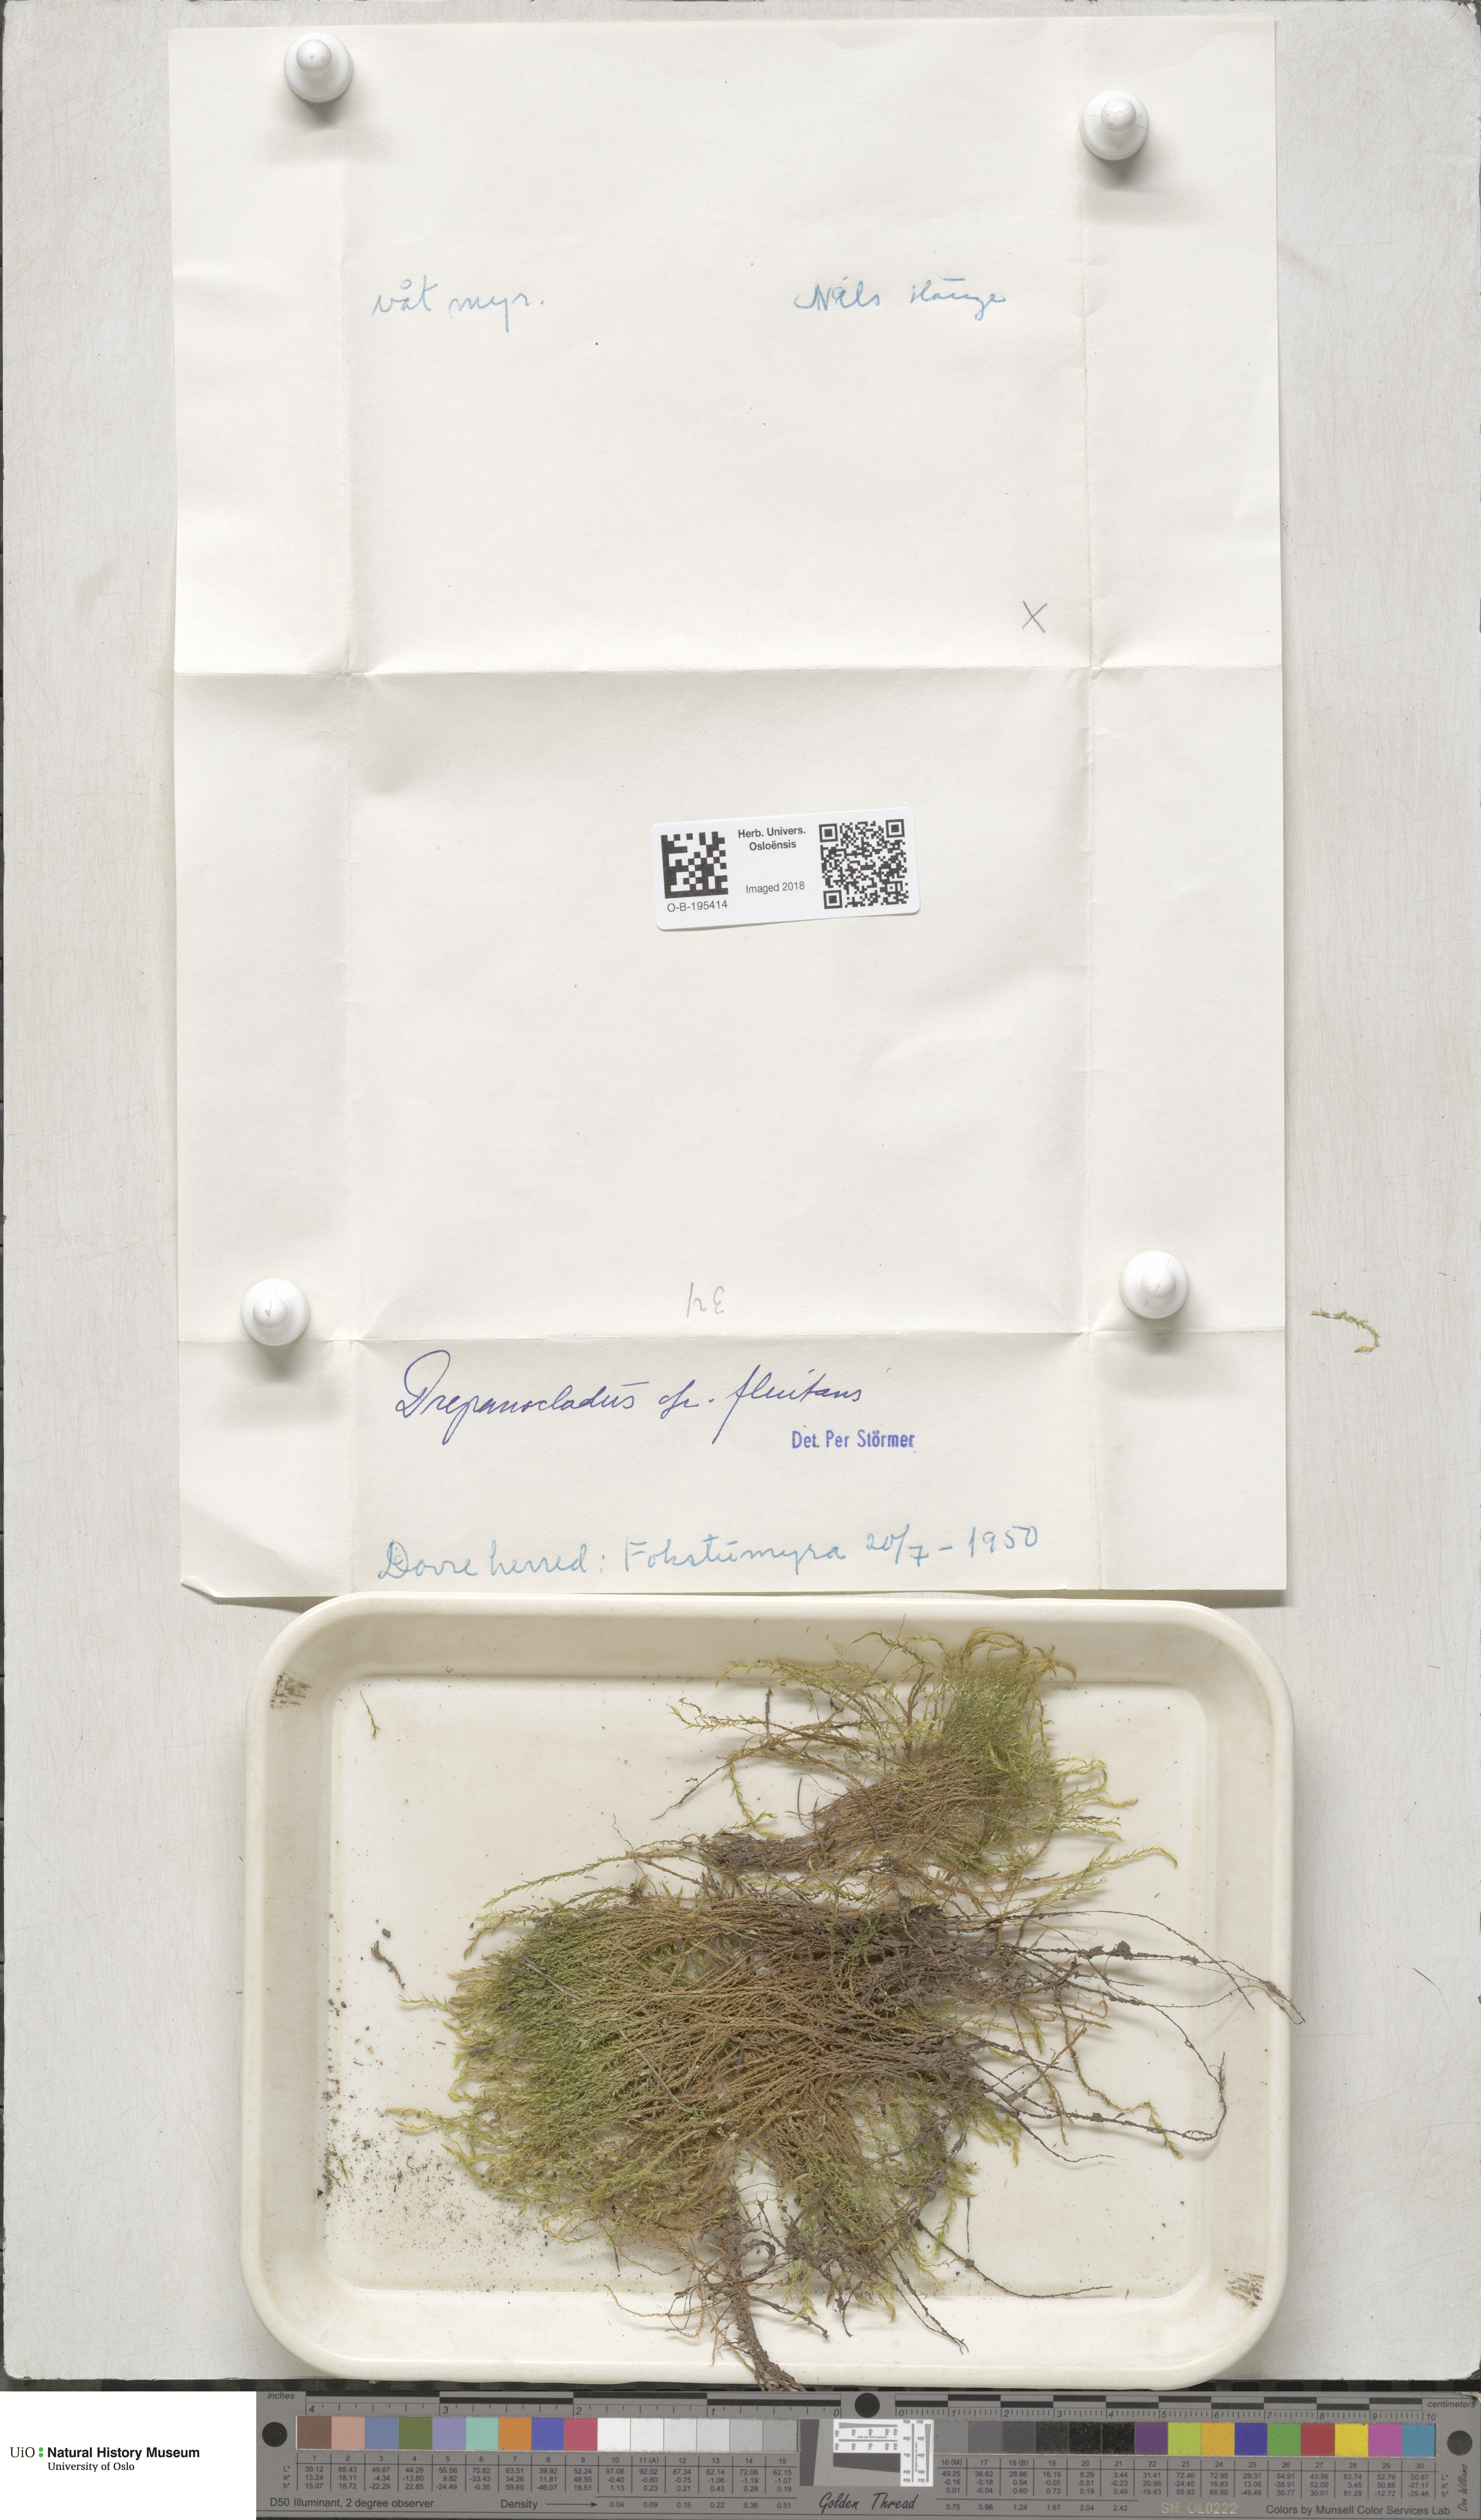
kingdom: Plantae
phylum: Bryophyta
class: Bryopsida
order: Hypnales
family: Calliergonaceae
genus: Warnstorfia
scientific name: Warnstorfia fluitans
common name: Floating hook moss
